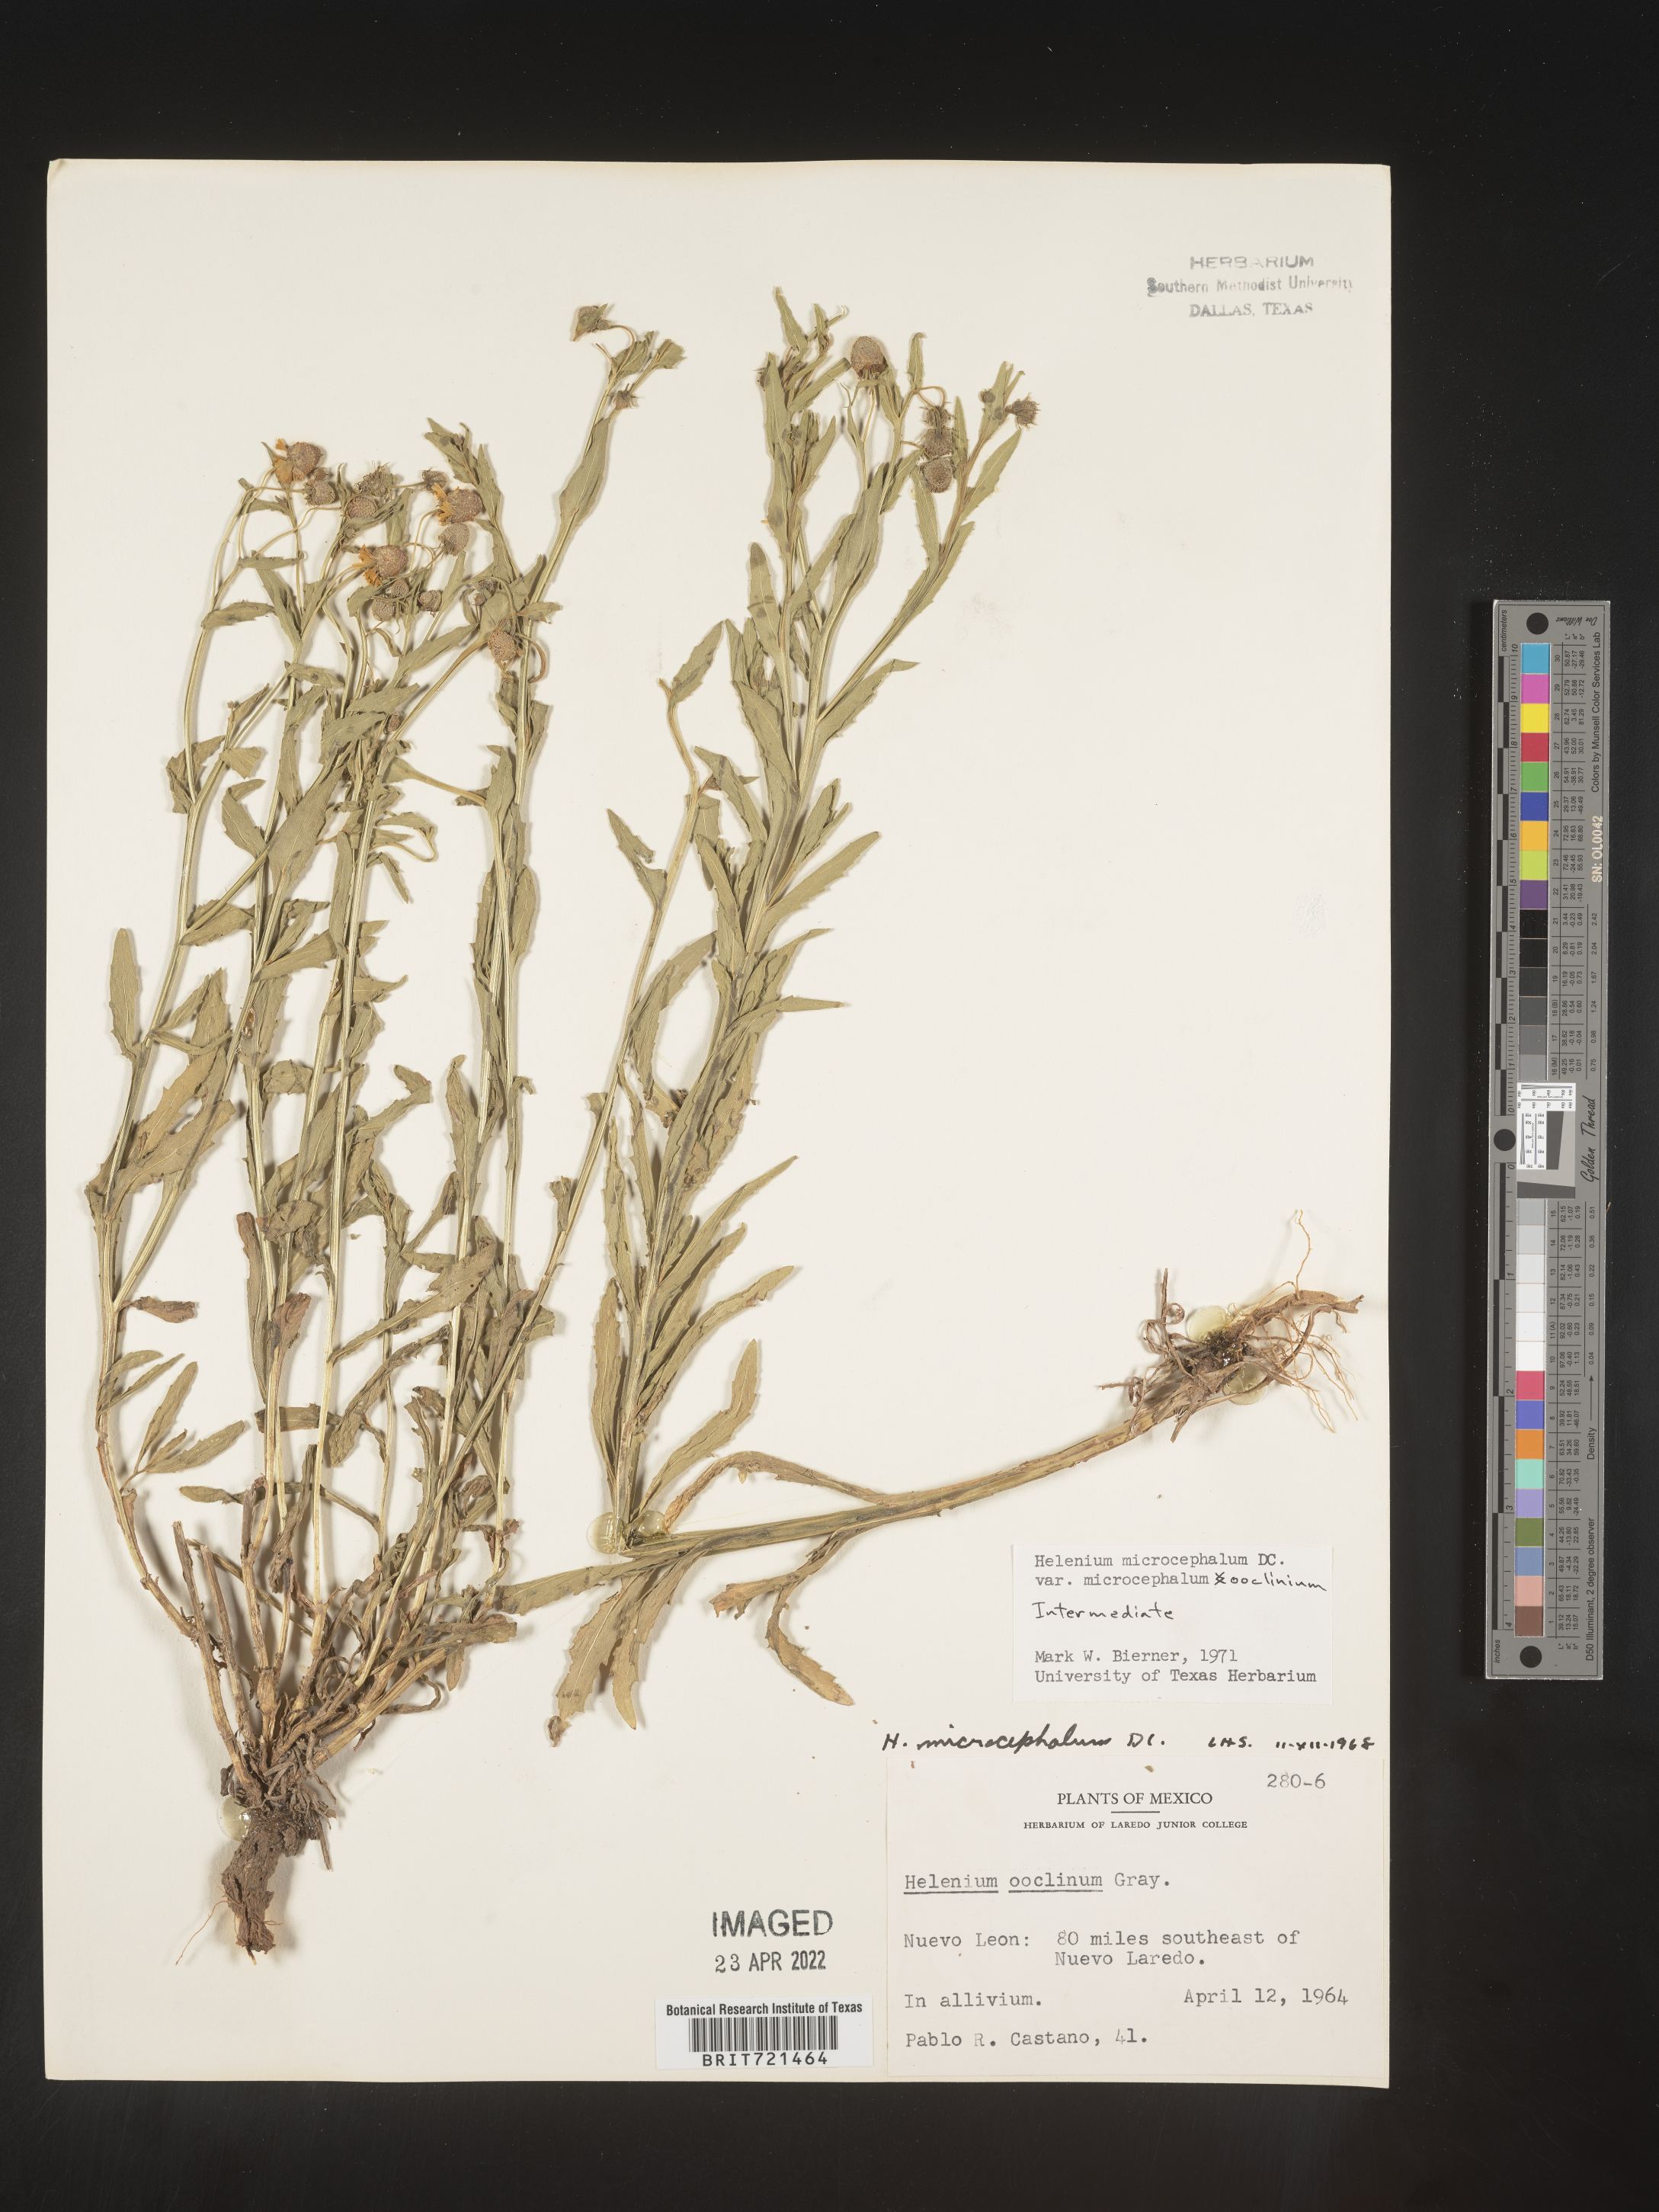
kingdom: Plantae
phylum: Tracheophyta
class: Magnoliopsida
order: Asterales
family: Asteraceae
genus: Helenium
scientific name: Helenium
